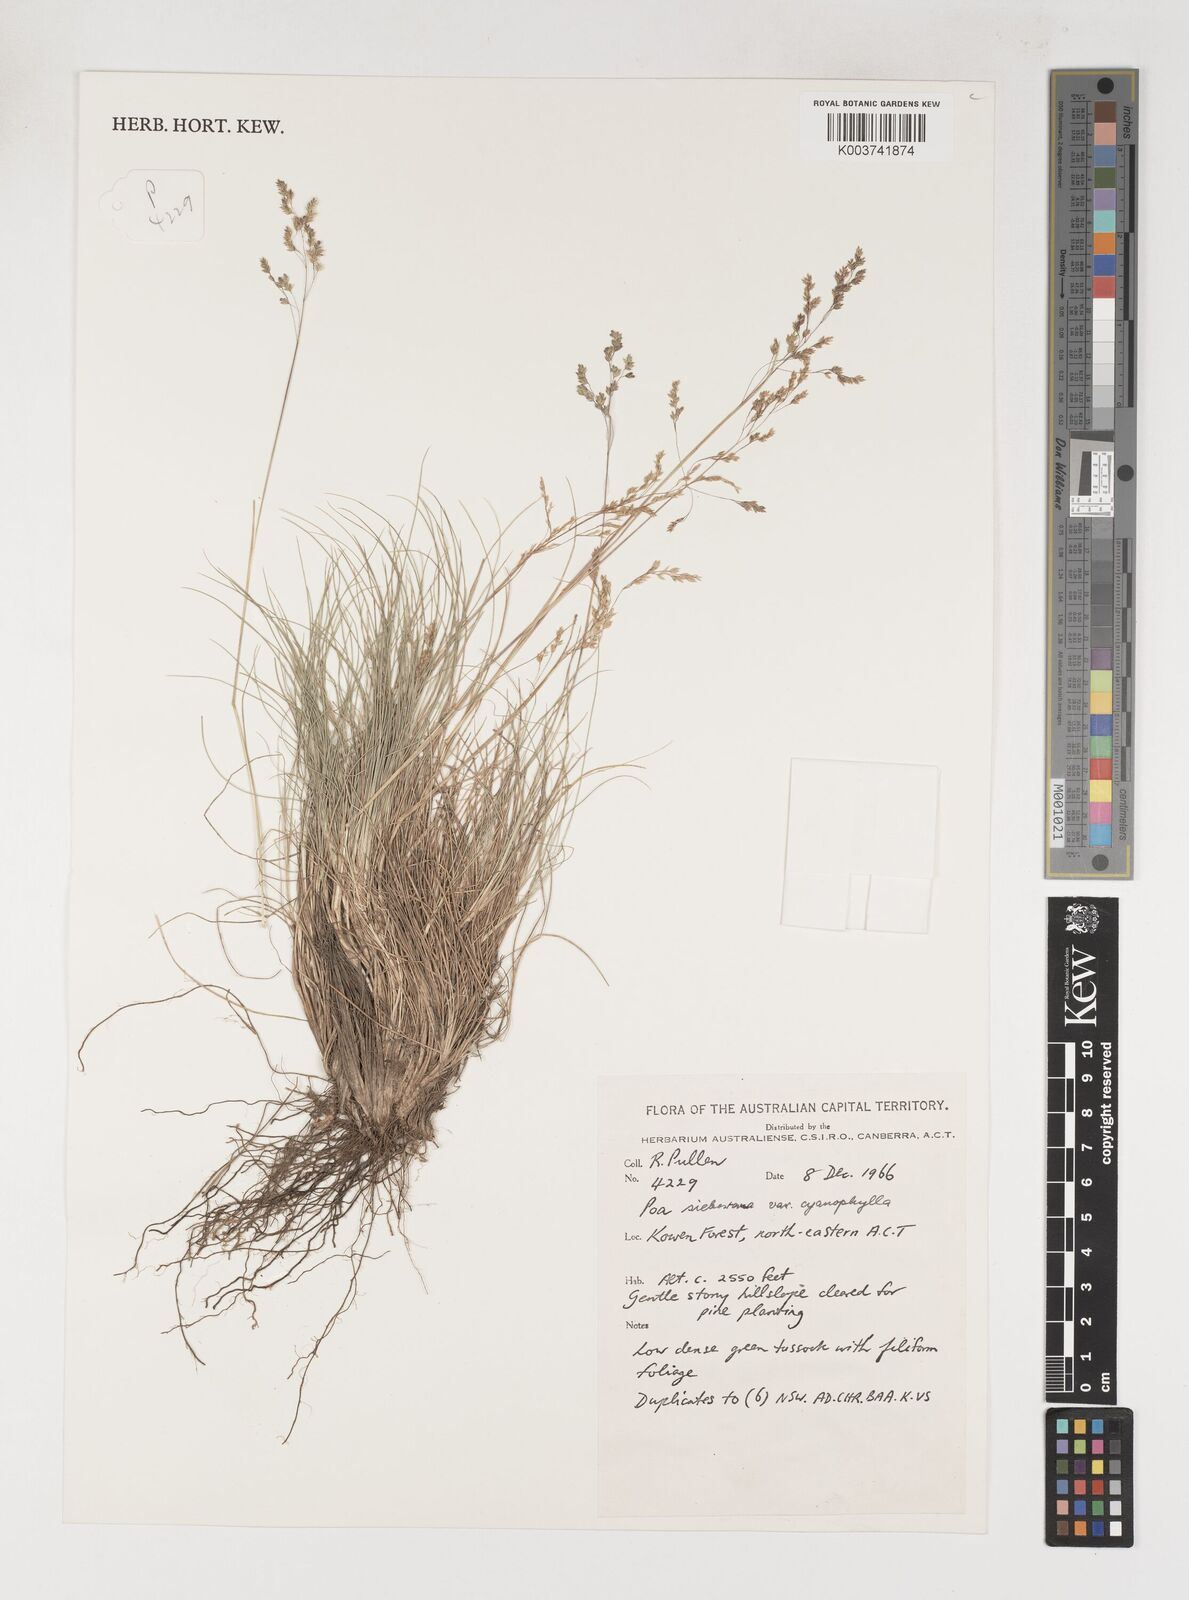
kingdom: Plantae
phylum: Tracheophyta
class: Liliopsida
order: Poales
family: Poaceae
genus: Poa
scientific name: Poa sieberiana
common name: Tussock poa
